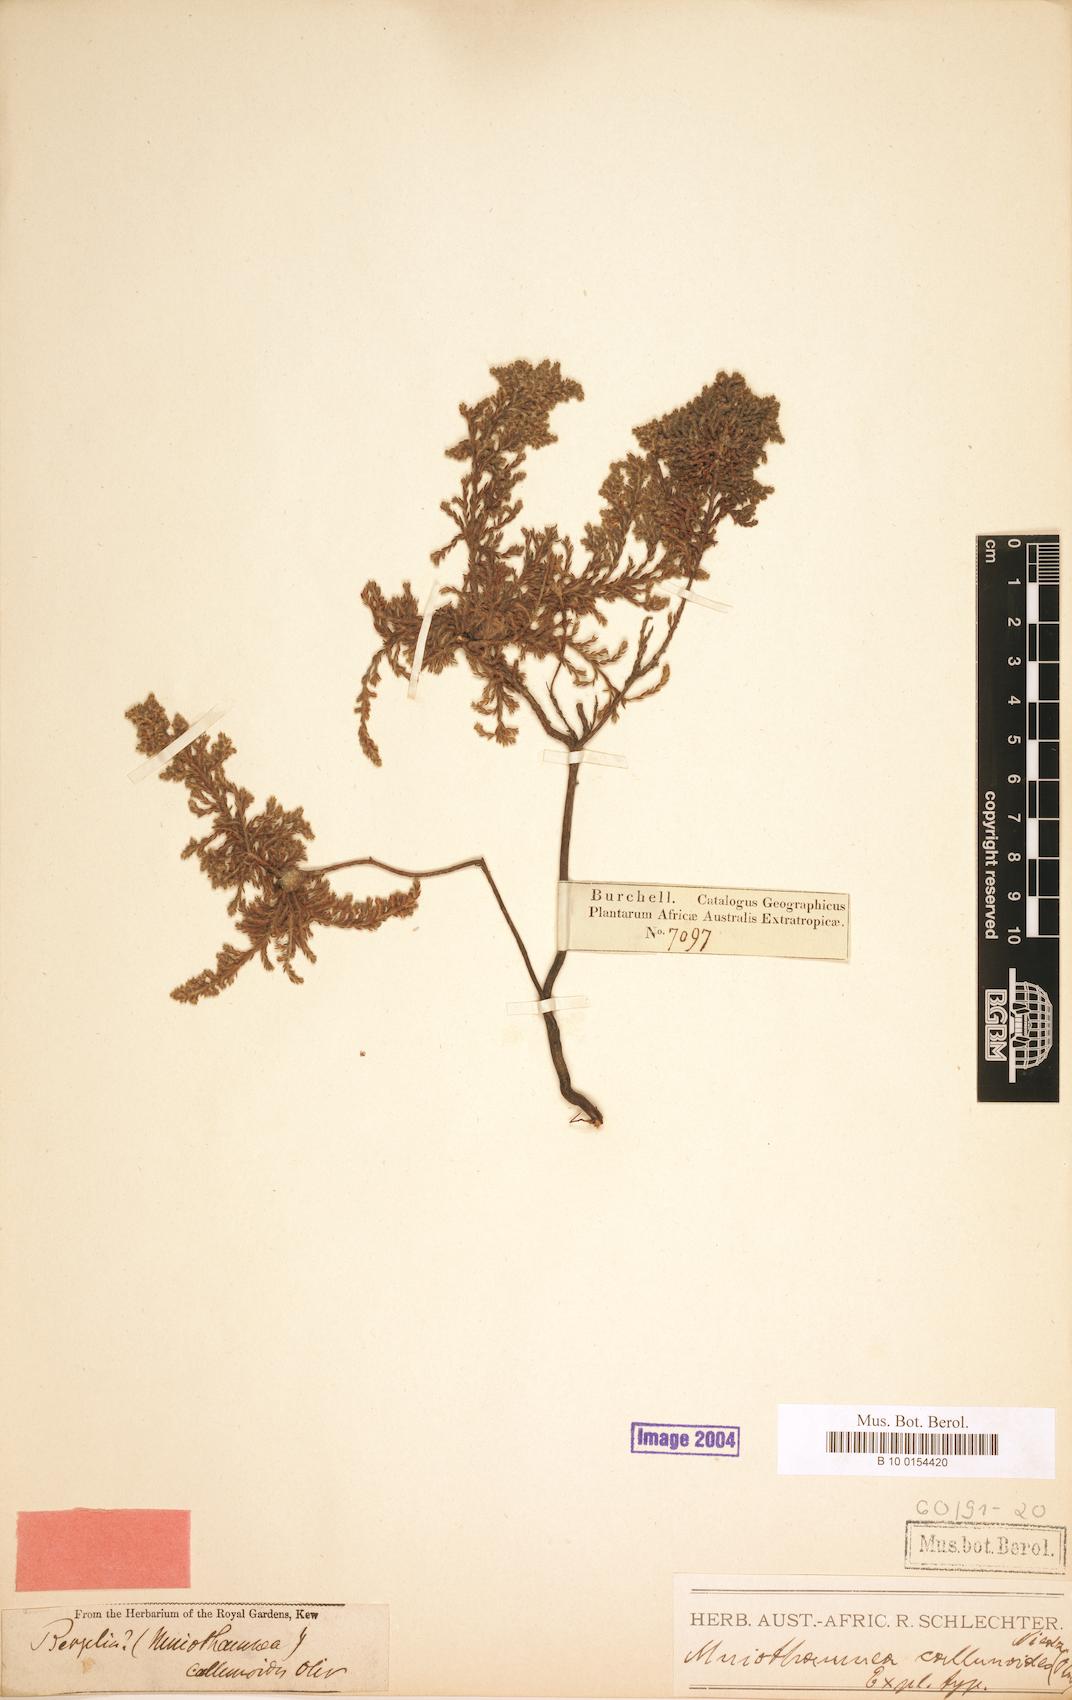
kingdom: Plantae
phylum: Tracheophyta
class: Magnoliopsida
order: Bruniales
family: Bruniaceae
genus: Brunia
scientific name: Brunia callunoides
